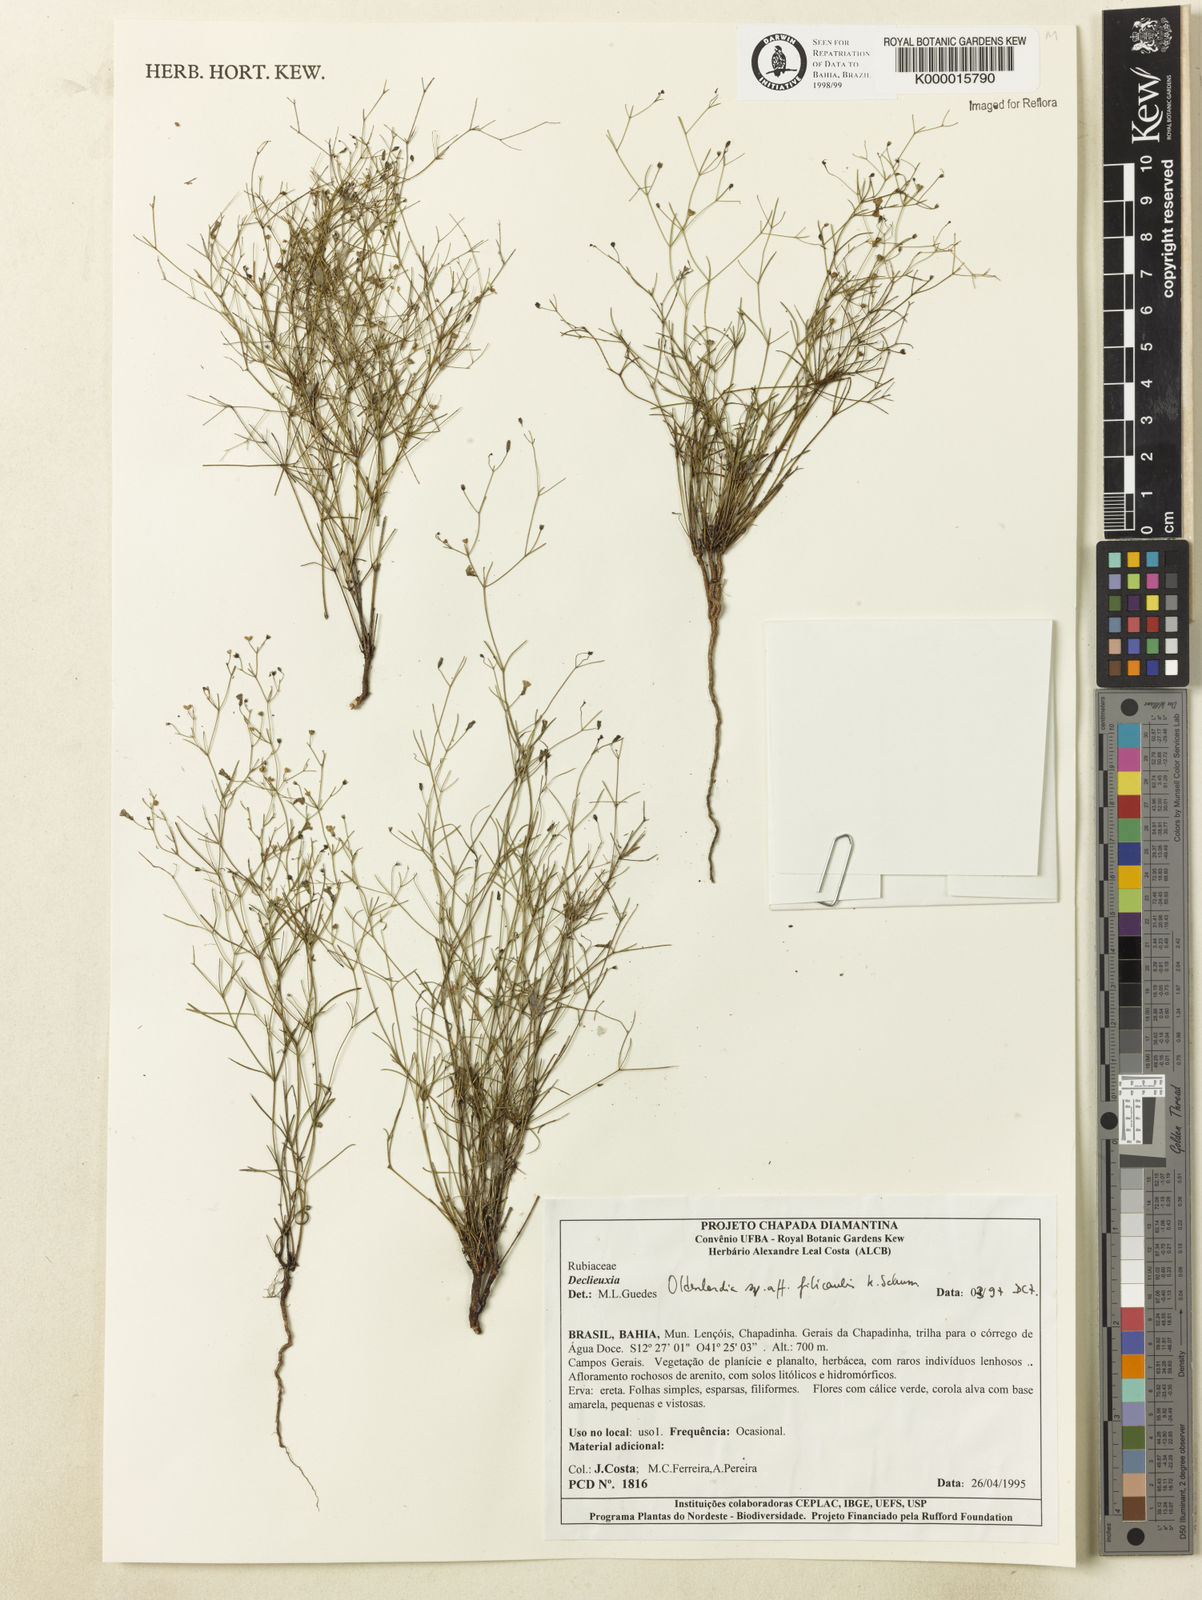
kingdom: Plantae
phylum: Tracheophyta
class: Magnoliopsida
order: Gentianales
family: Rubiaceae
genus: Oldenlandia
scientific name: Oldenlandia filicaulis
